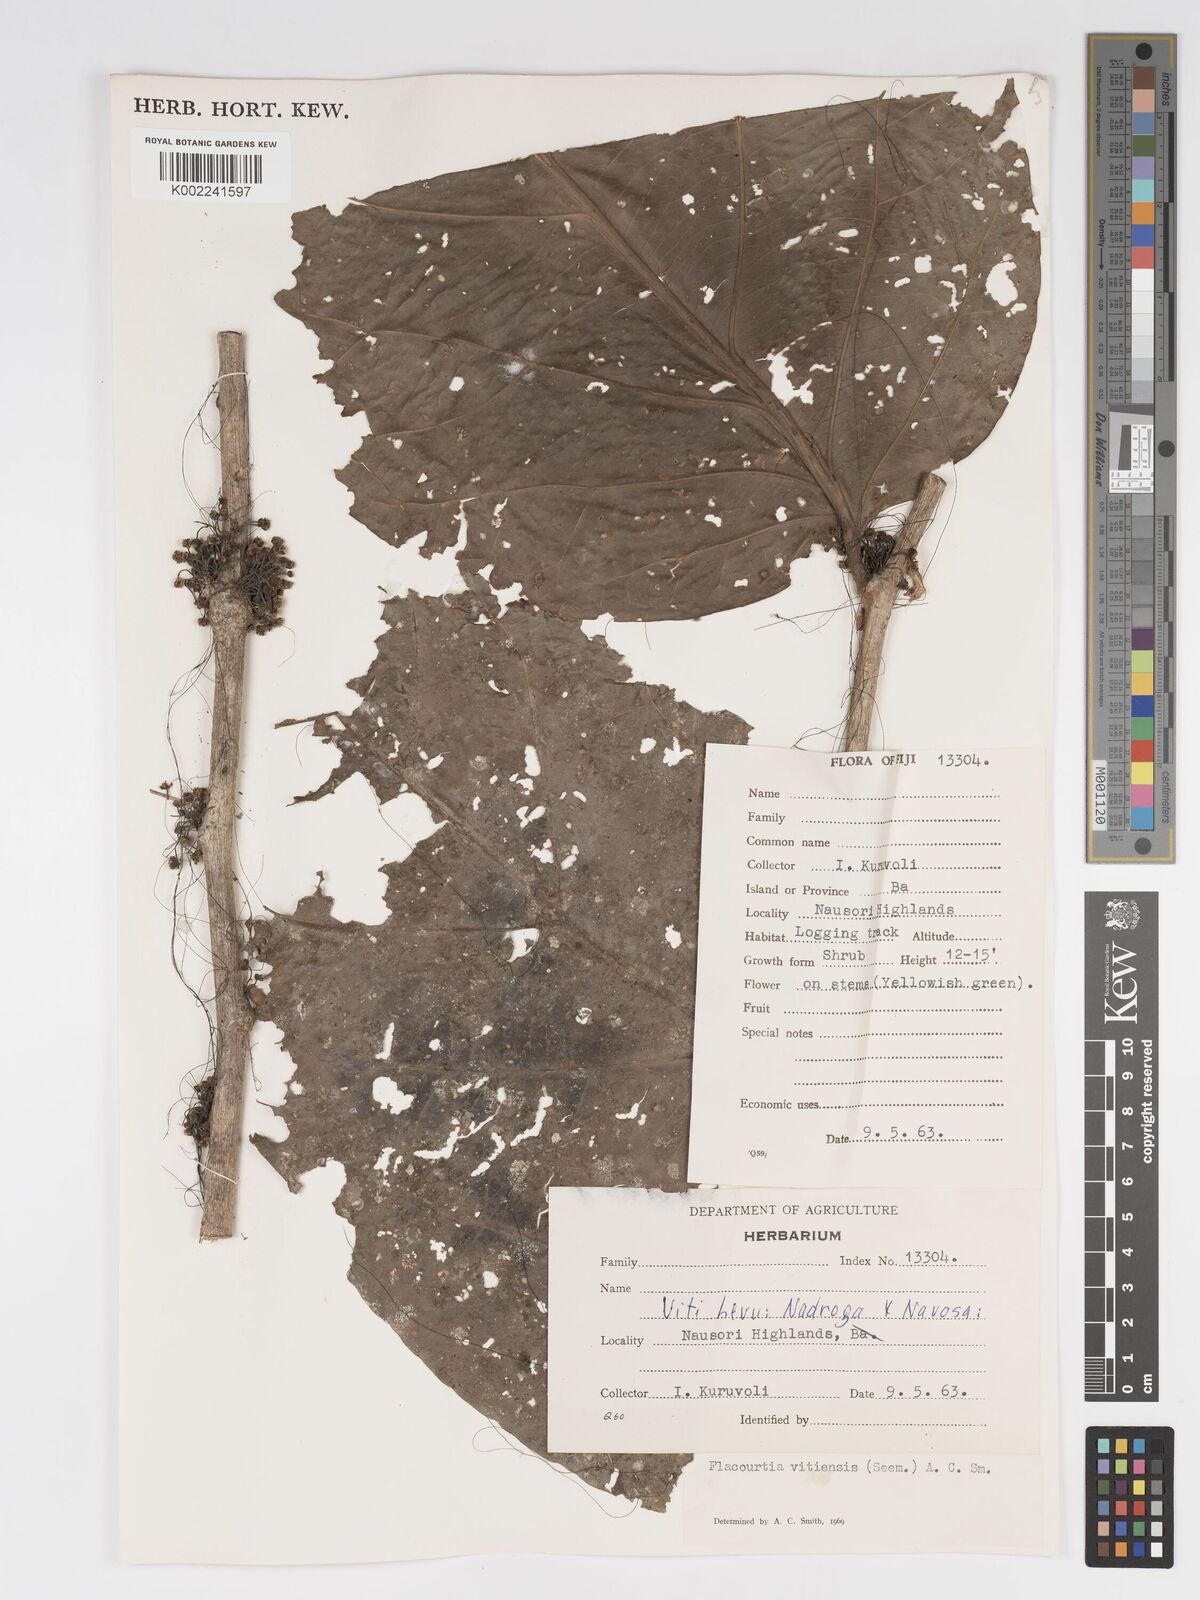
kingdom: Plantae
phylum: Tracheophyta
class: Magnoliopsida
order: Malpighiales
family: Salicaceae
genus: Flacourtia
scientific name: Flacourtia vitiensis
